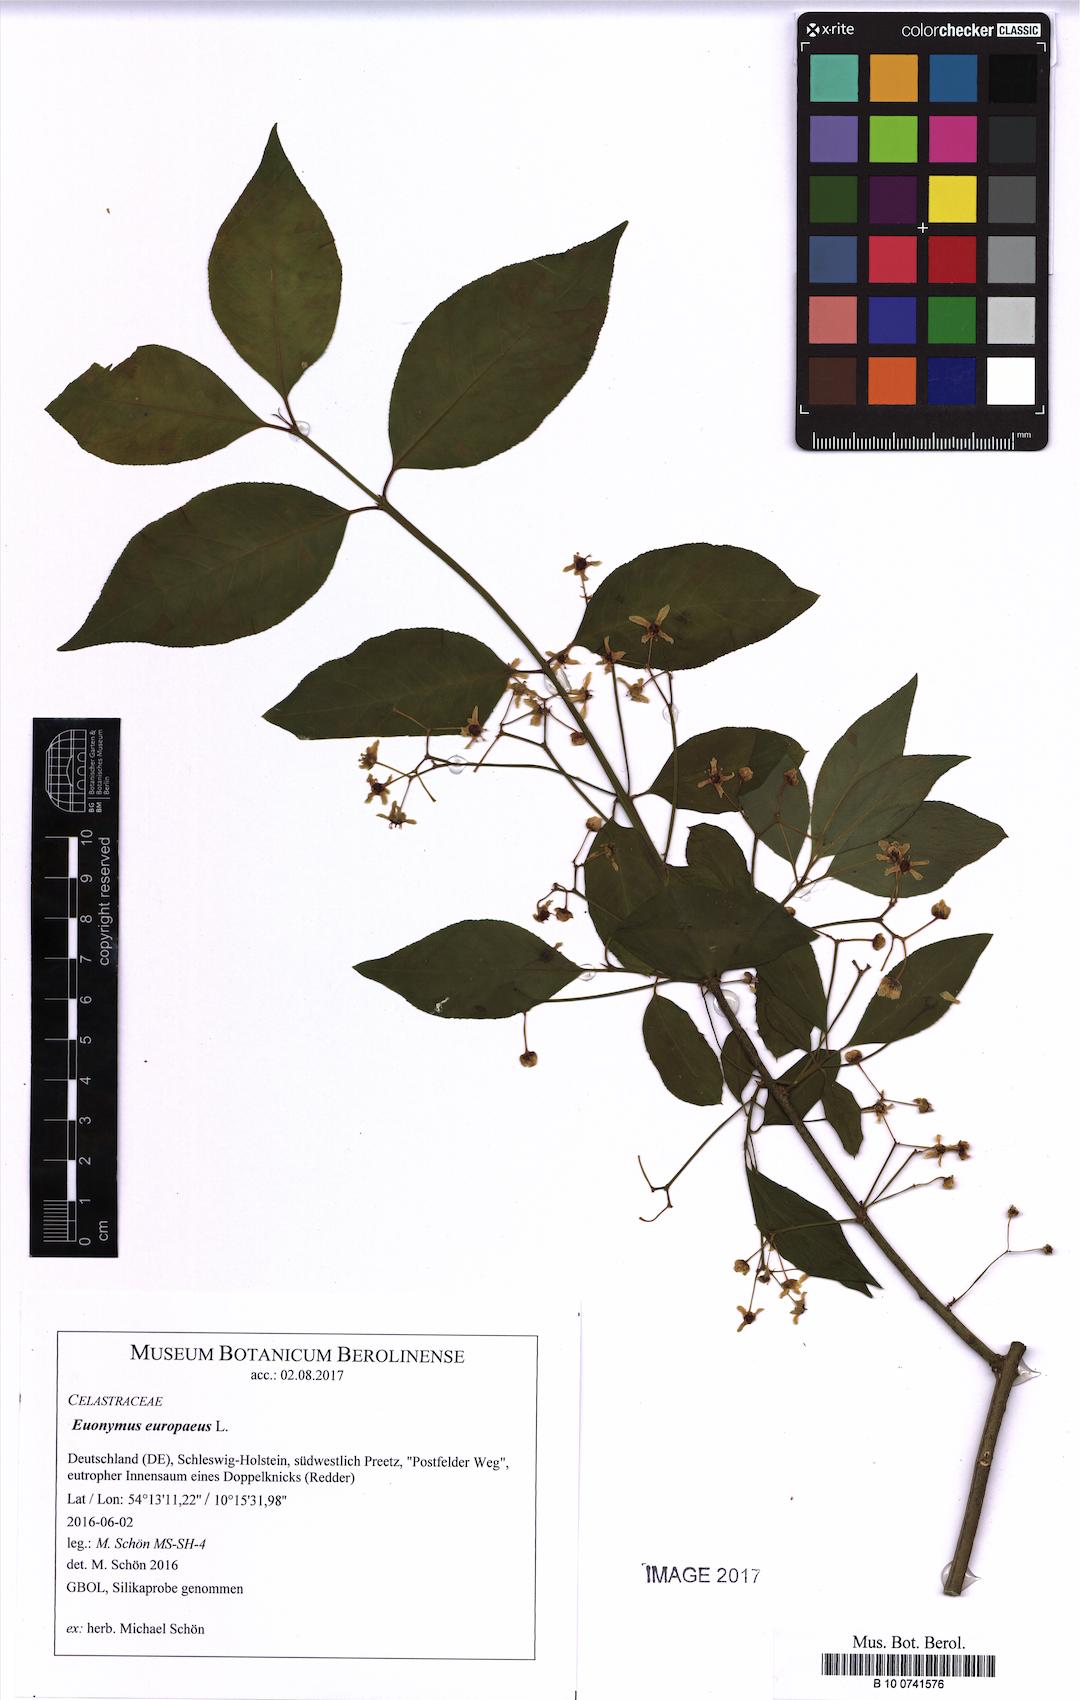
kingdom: Plantae
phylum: Tracheophyta
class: Magnoliopsida
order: Celastrales
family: Celastraceae
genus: Euonymus
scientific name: Euonymus europaeus
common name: Spindle
